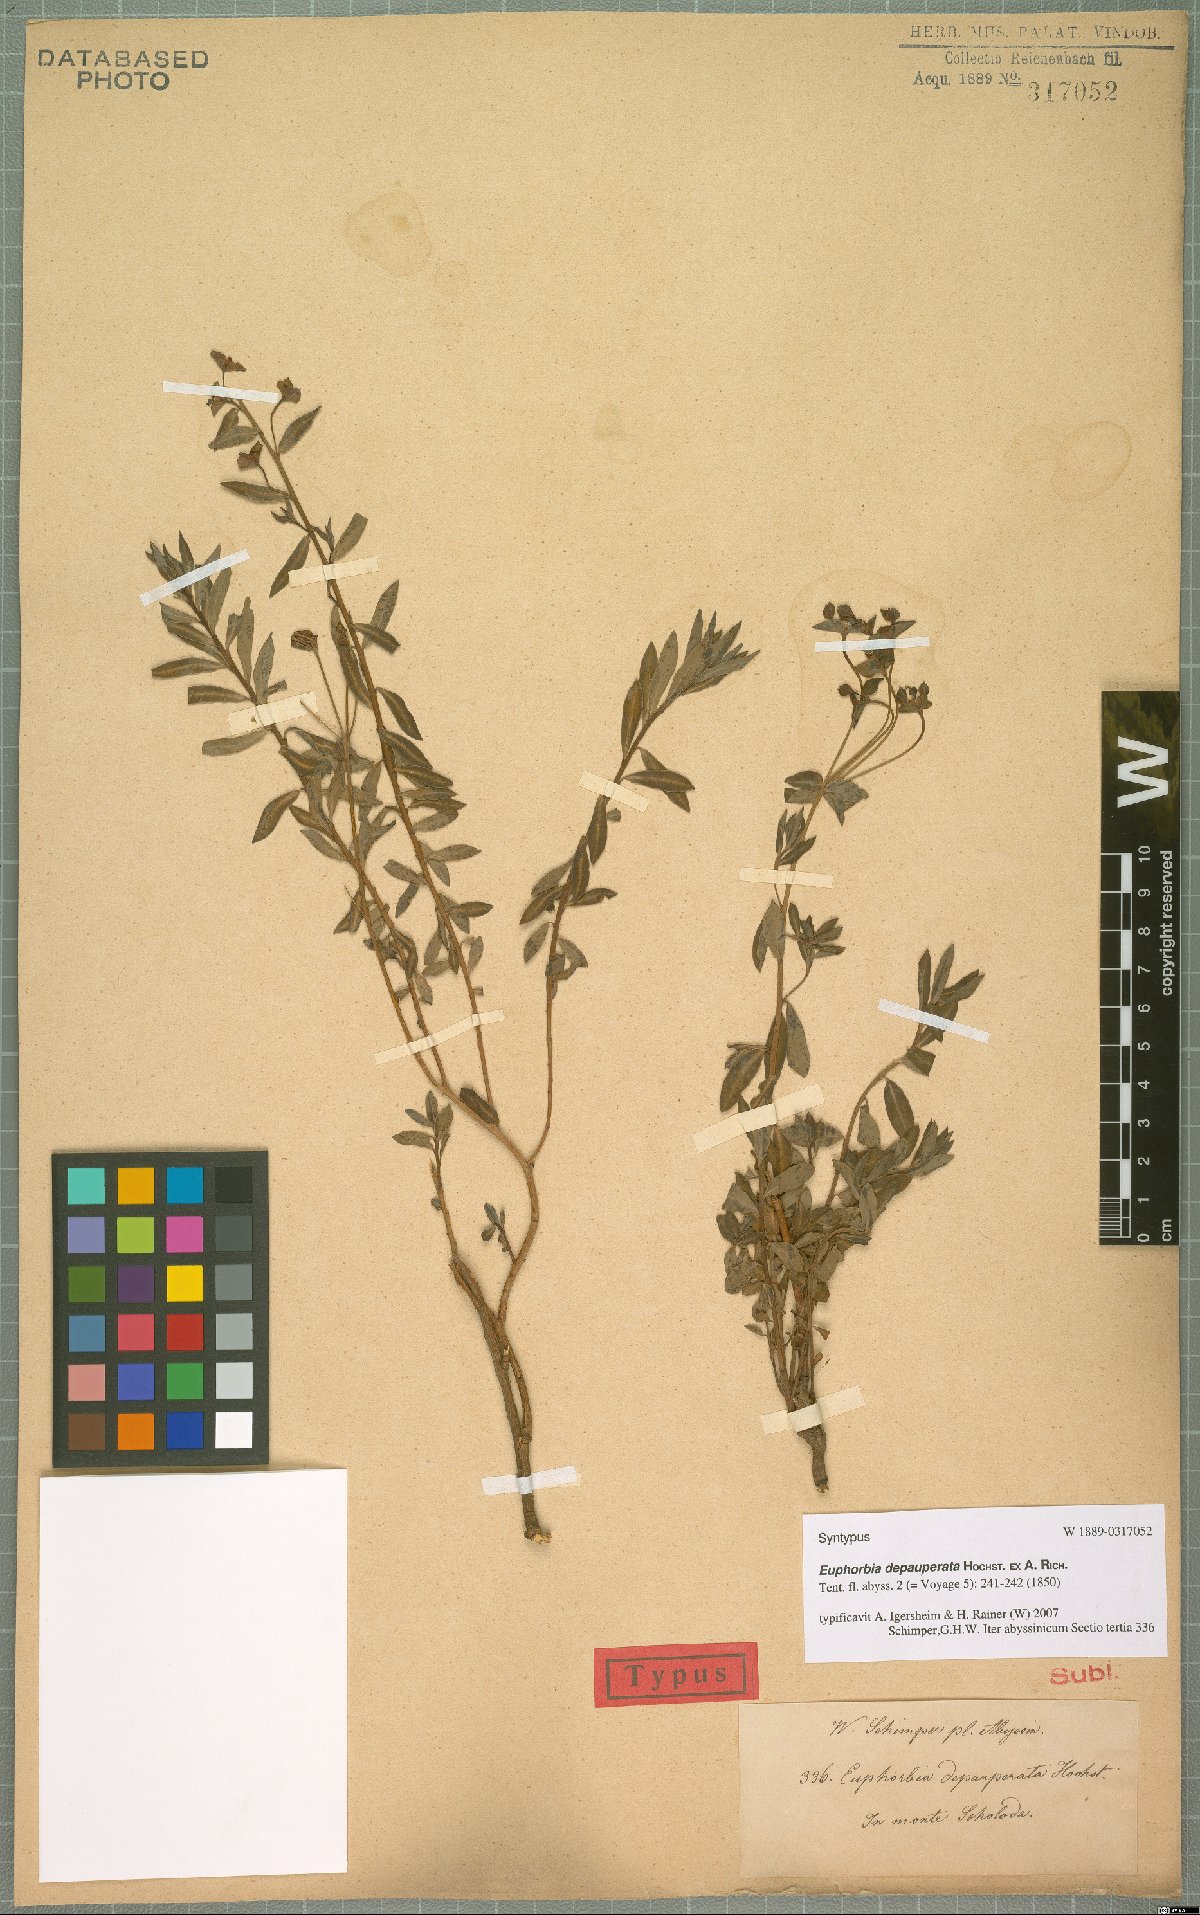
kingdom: Plantae
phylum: Tracheophyta
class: Magnoliopsida
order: Malpighiales
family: Euphorbiaceae
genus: Euphorbia
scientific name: Euphorbia depauperata
